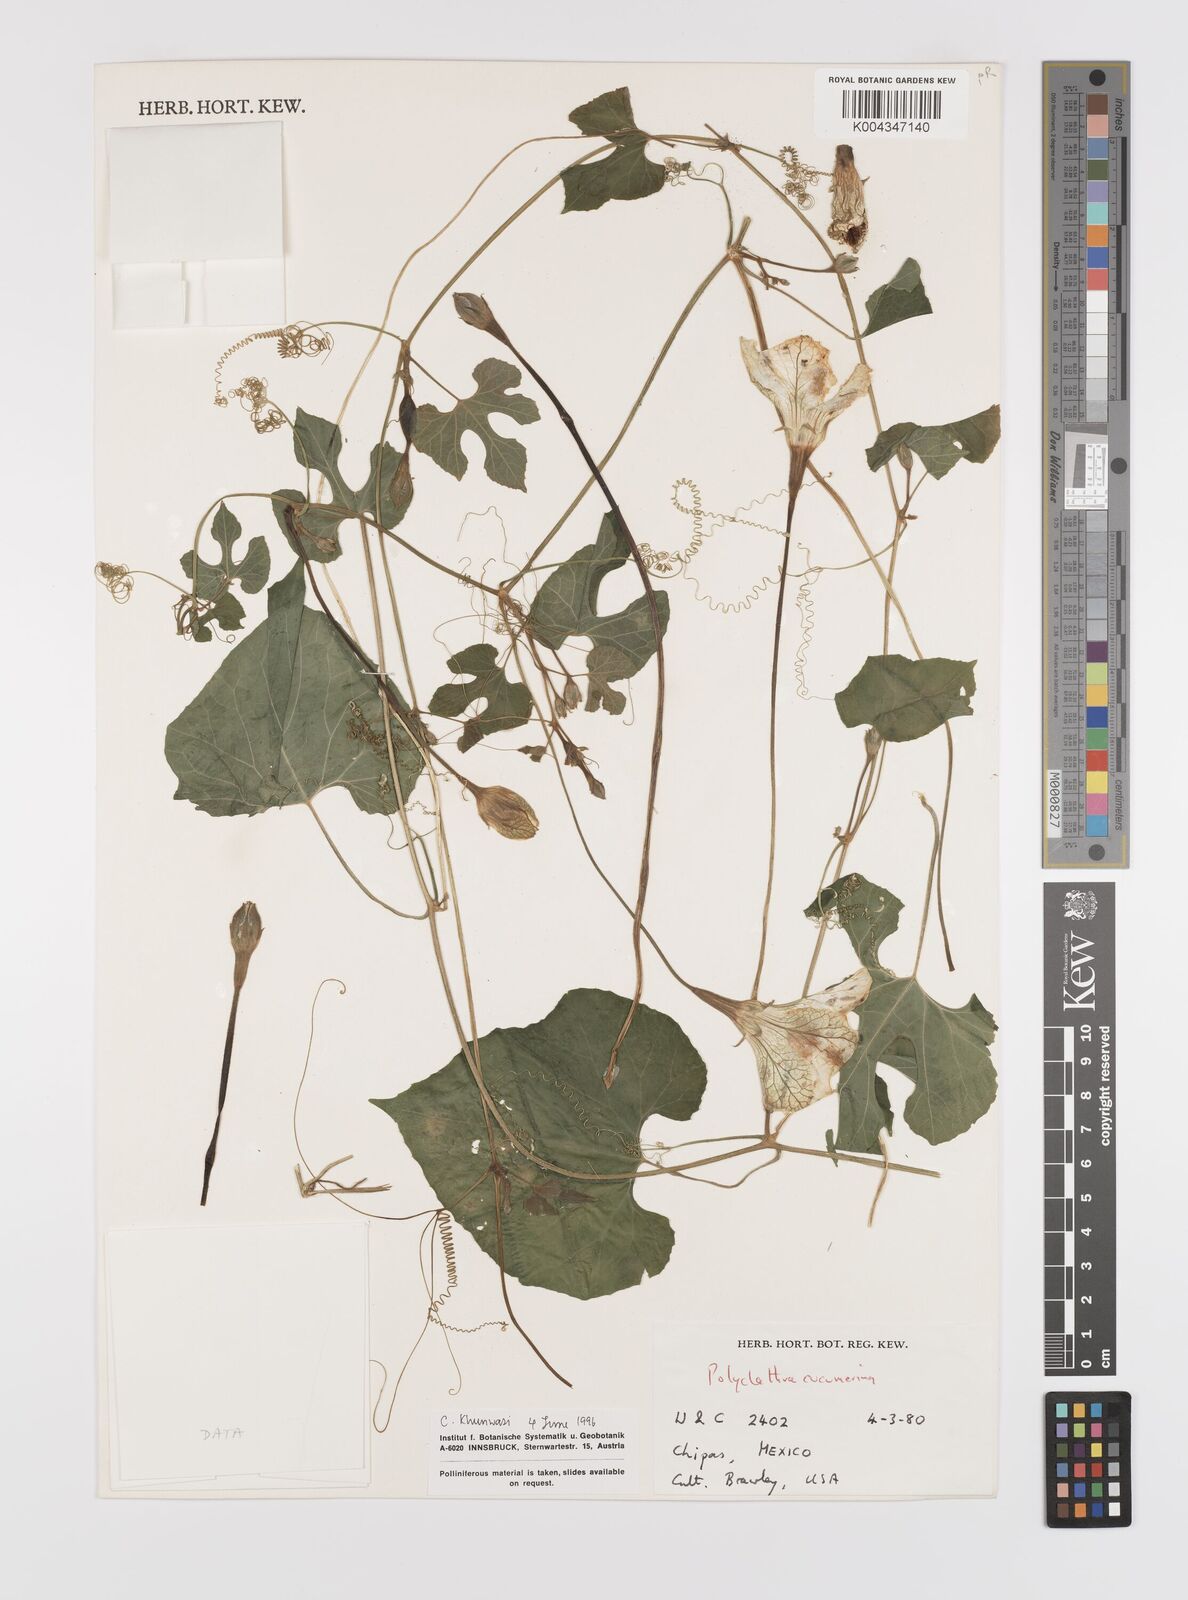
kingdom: Plantae
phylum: Tracheophyta
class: Magnoliopsida
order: Cucurbitales
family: Cucurbitaceae
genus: Polyclathra
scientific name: Polyclathra cucumerina
